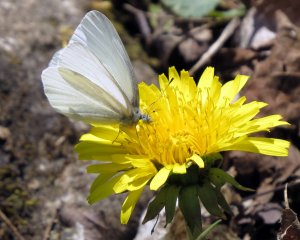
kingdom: Animalia
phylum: Arthropoda
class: Insecta
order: Lepidoptera
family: Pieridae
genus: Pieris
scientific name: Pieris virginiensis
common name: West Virginia White
